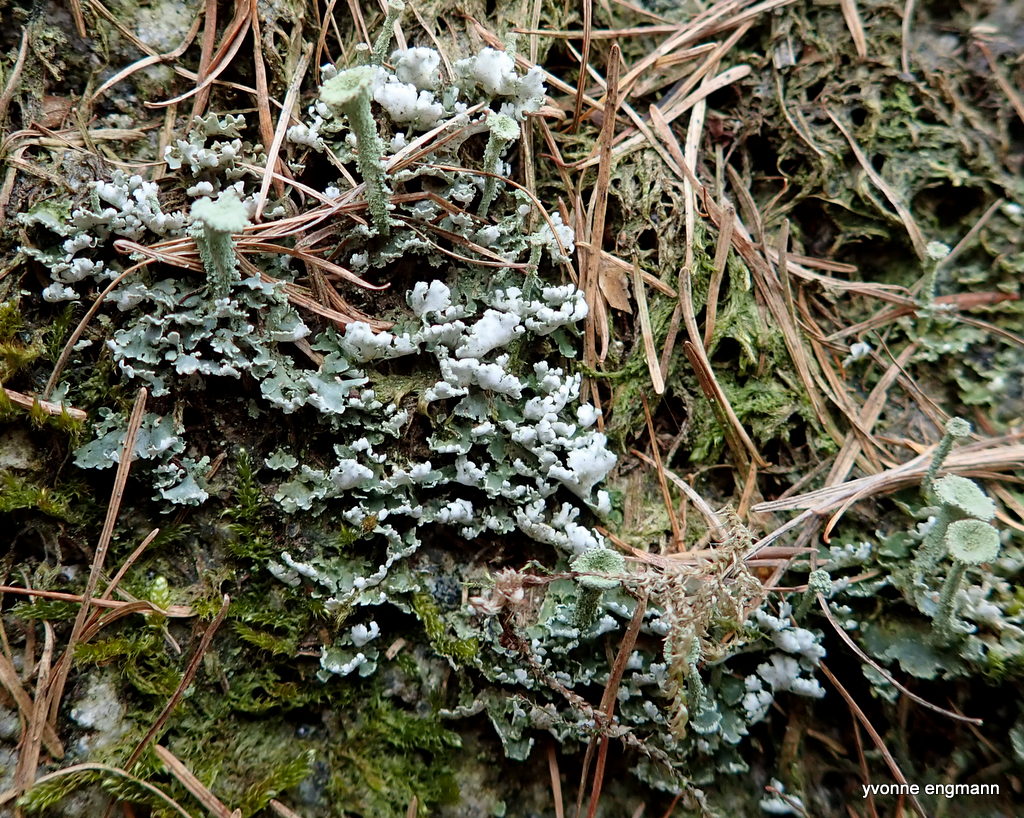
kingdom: Fungi
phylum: Ascomycota
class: Lecanoromycetes
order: Lecanorales
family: Cladoniaceae
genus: Cladonia
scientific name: Cladonia
